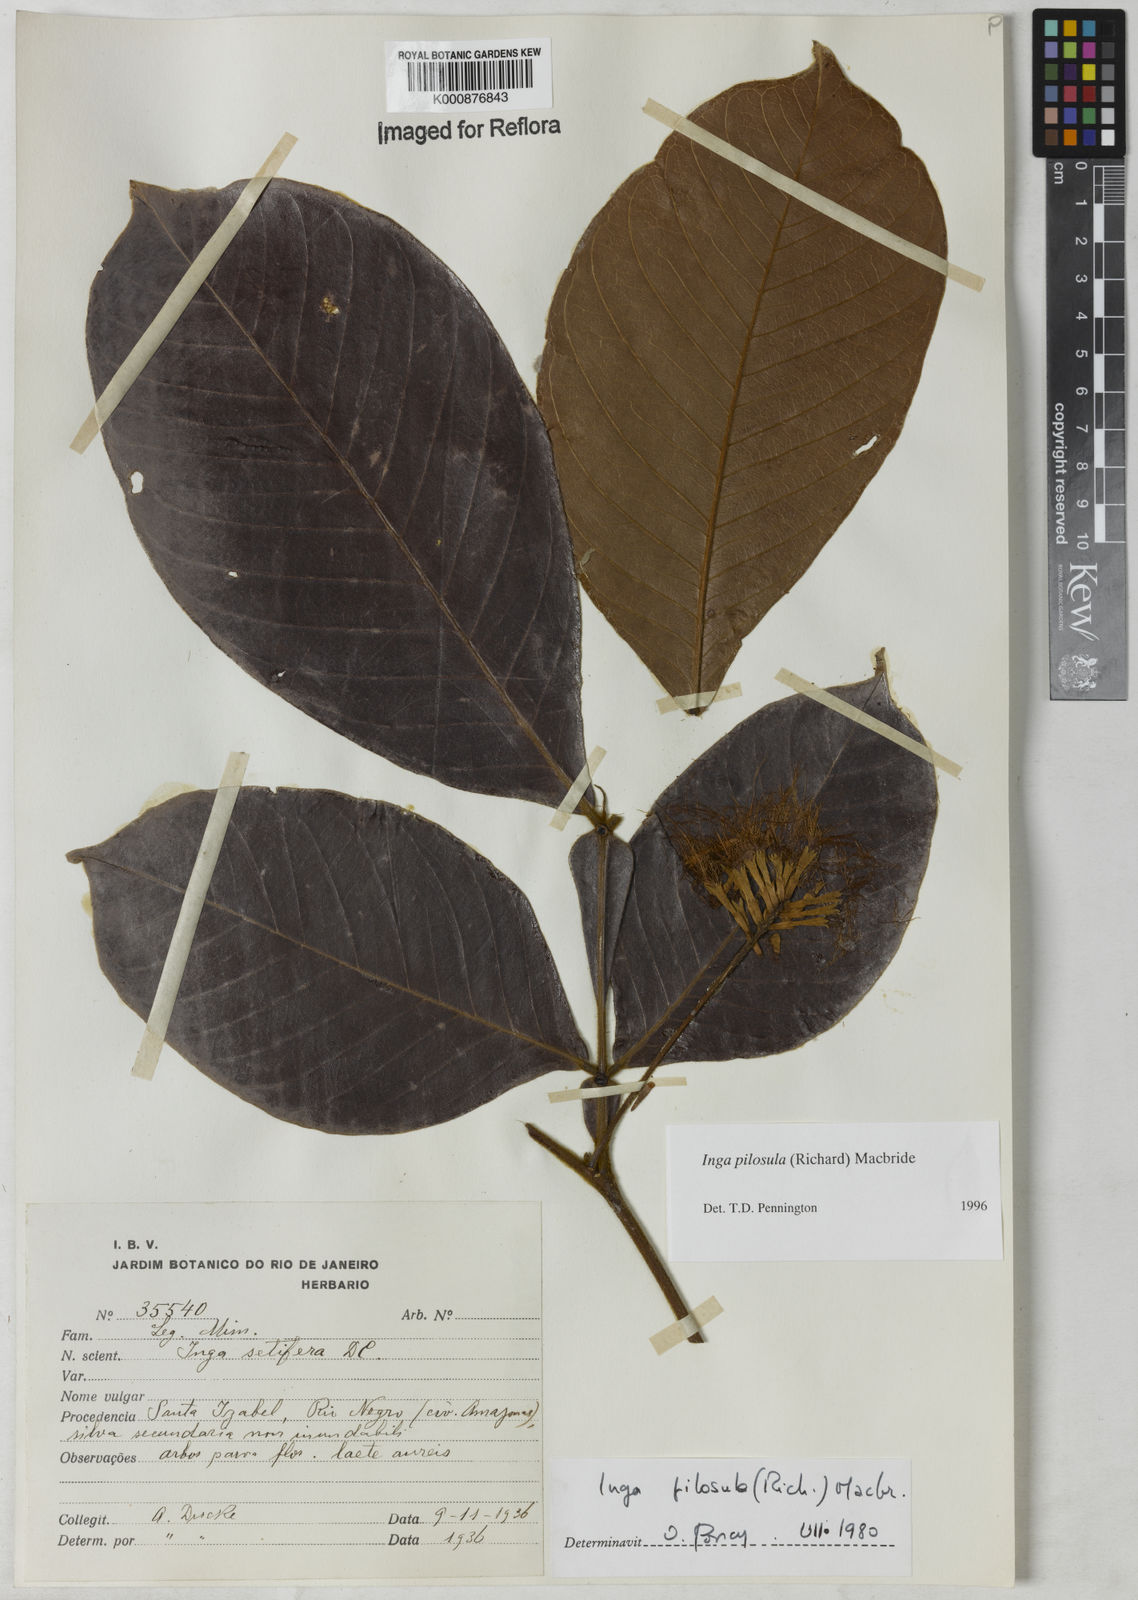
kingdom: Plantae
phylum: Tracheophyta
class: Magnoliopsida
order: Fabales
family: Fabaceae
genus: Inga
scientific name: Inga pilosula
